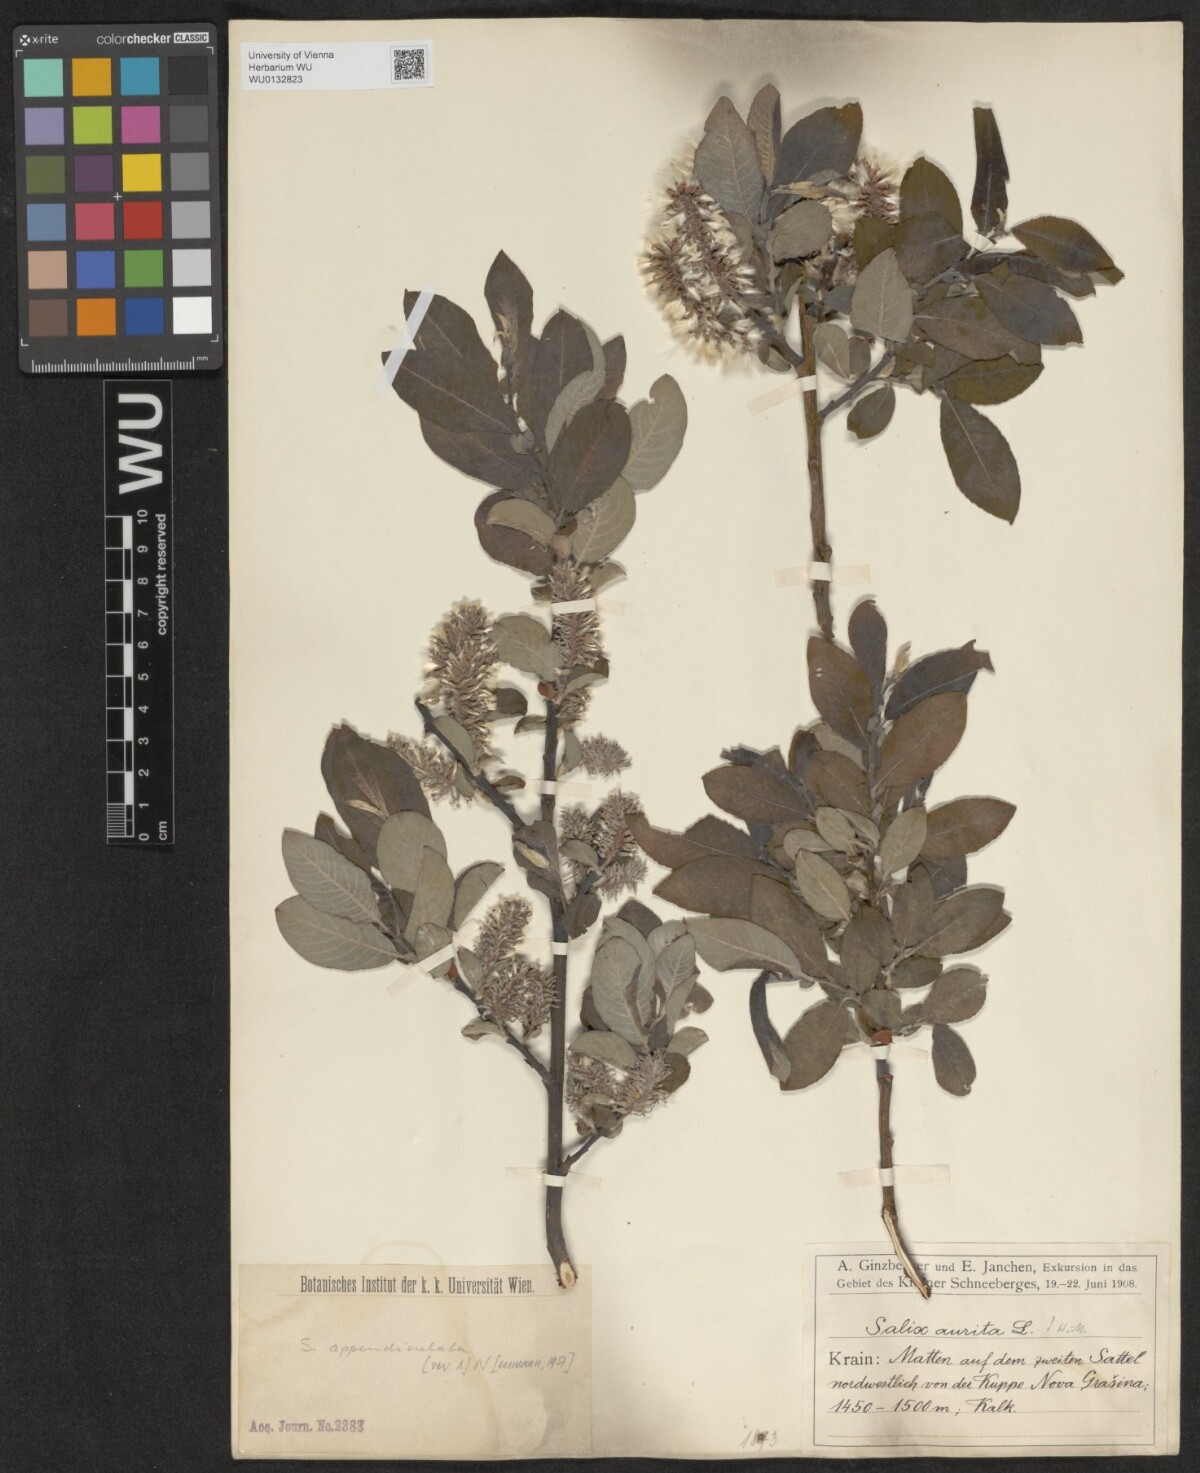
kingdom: Plantae
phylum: Tracheophyta
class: Magnoliopsida
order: Malpighiales
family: Salicaceae
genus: Salix
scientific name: Salix appendiculata
